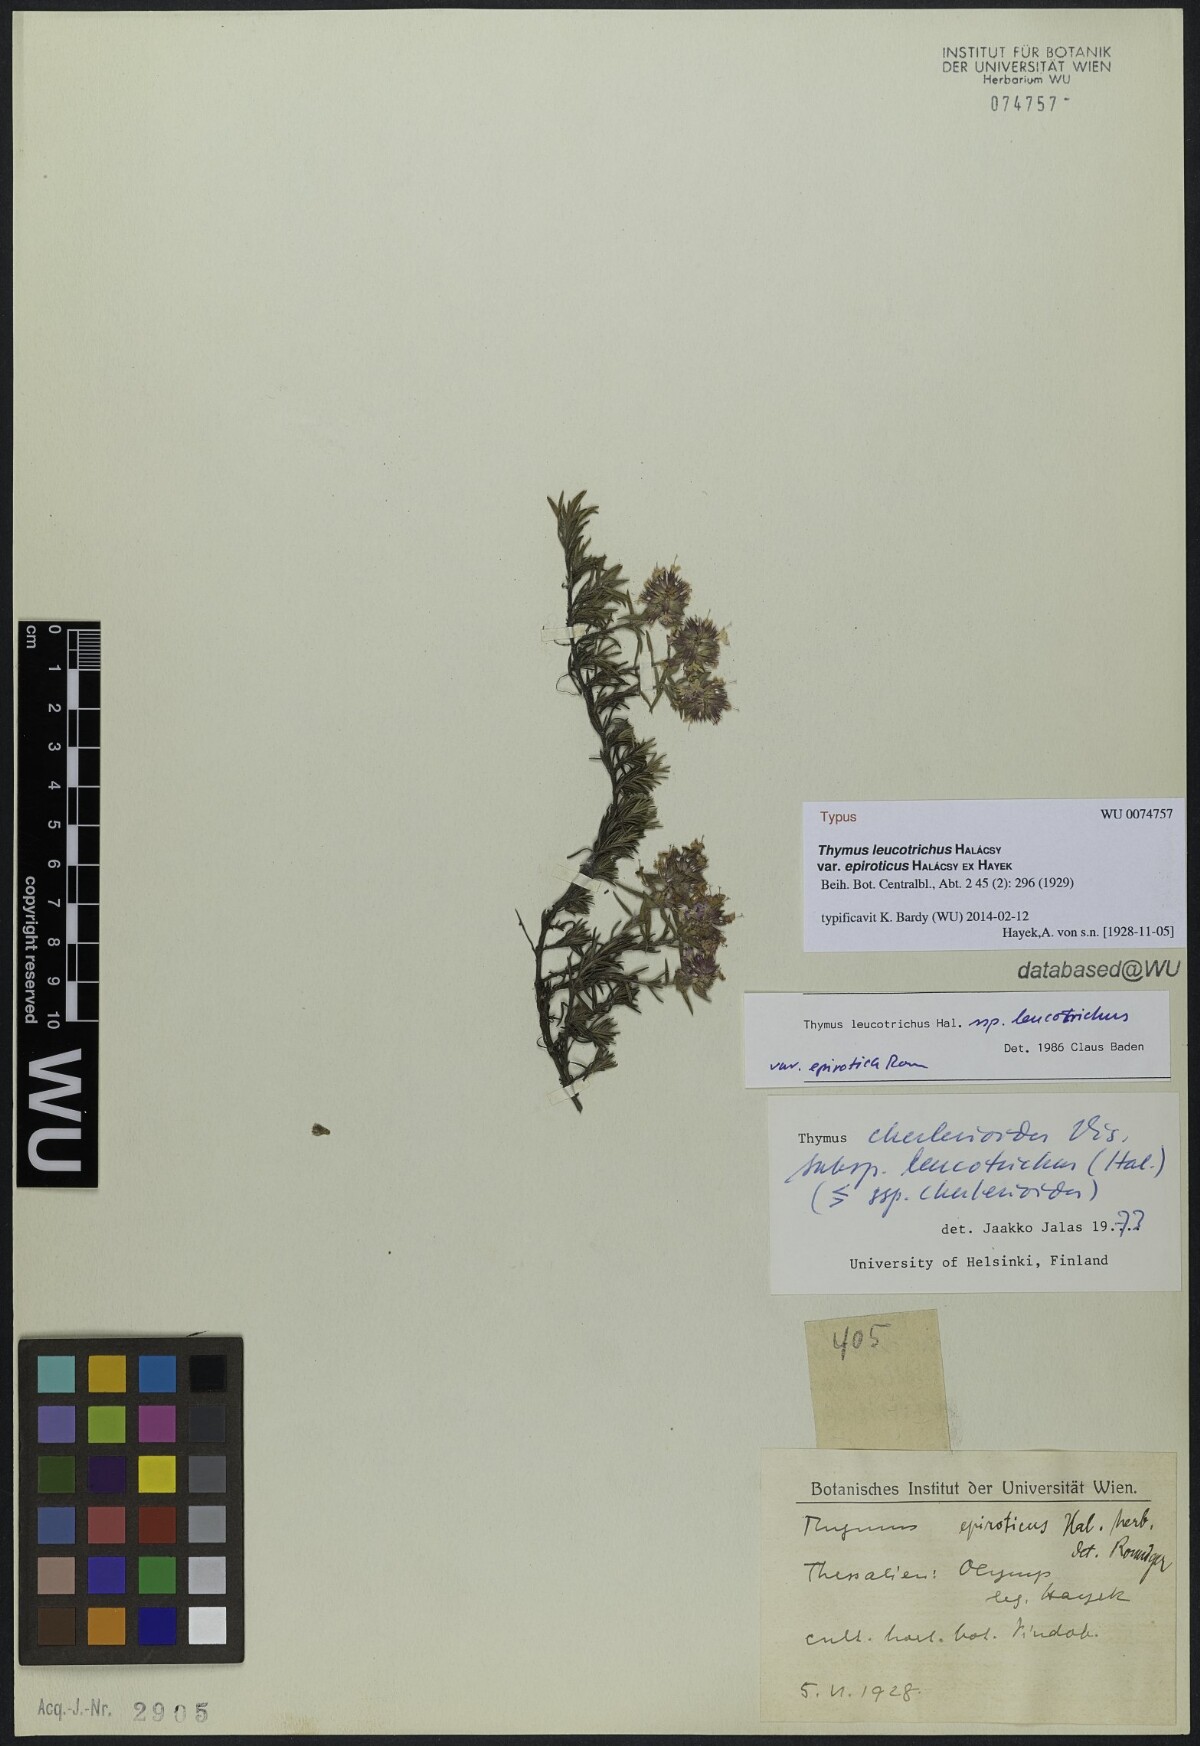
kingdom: Plantae
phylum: Tracheophyta
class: Magnoliopsida
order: Lamiales
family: Lamiaceae
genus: Thymus
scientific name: Thymus leucotrichus
